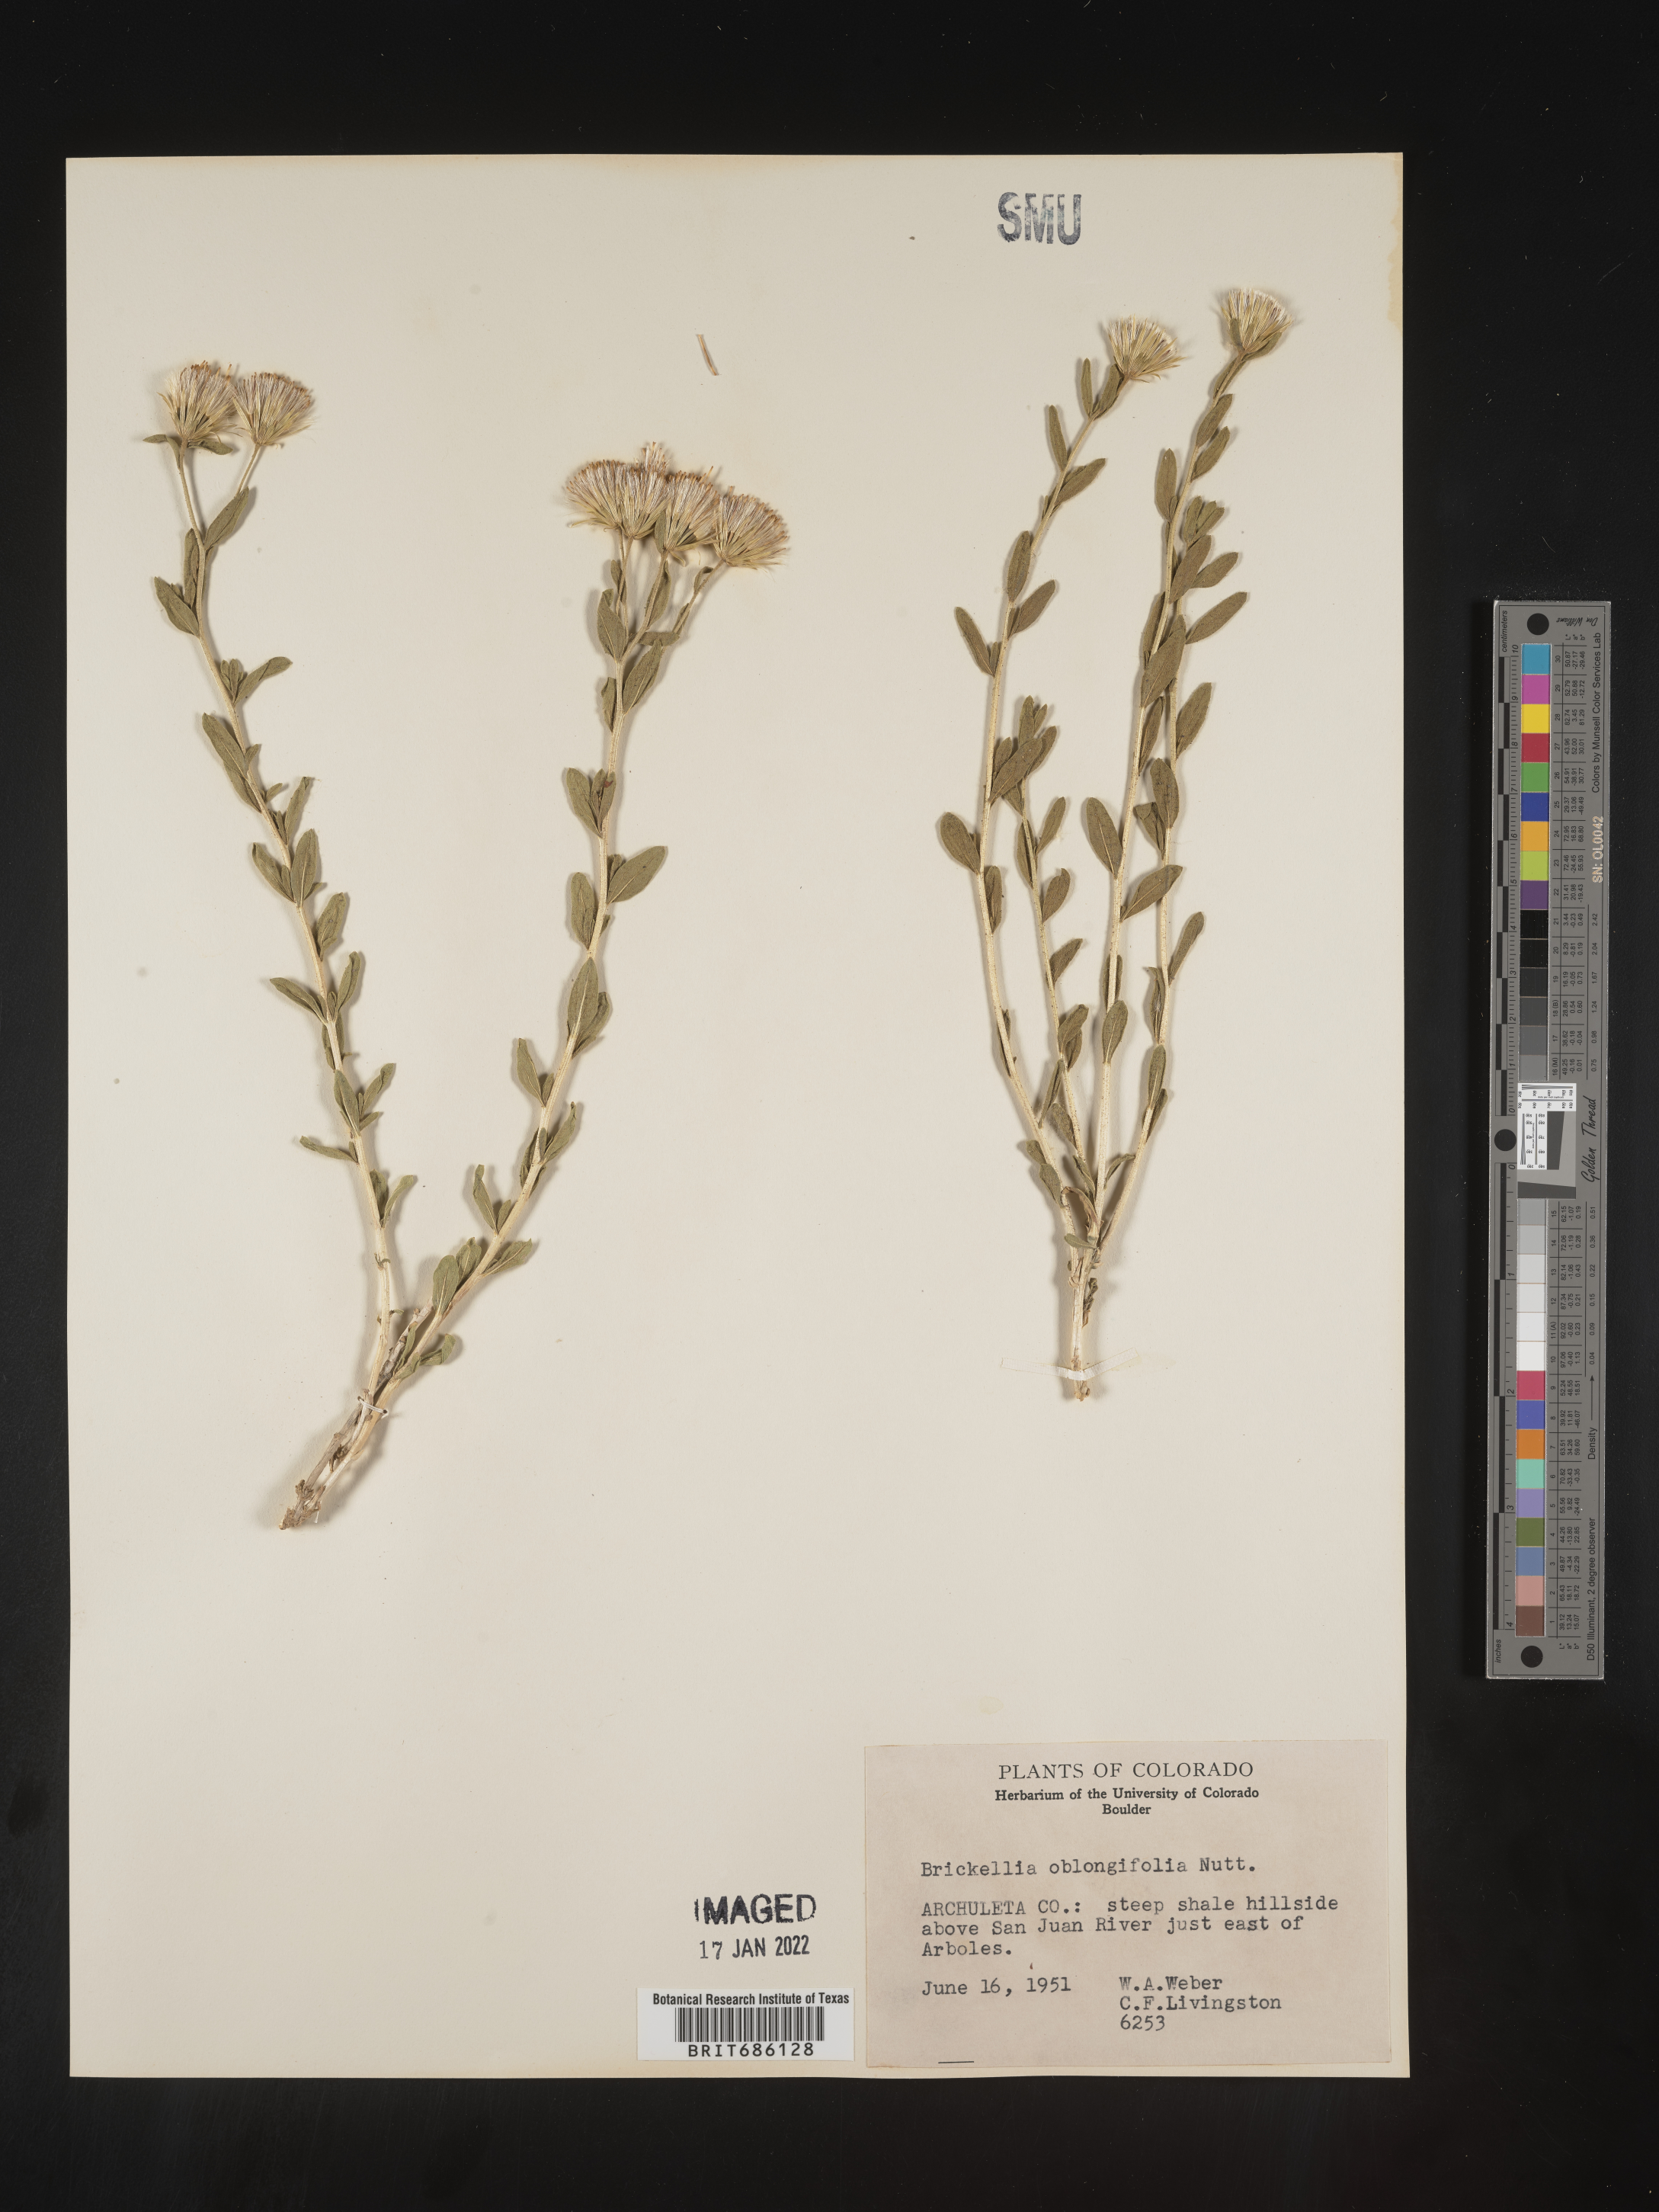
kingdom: Plantae
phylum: Tracheophyta
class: Magnoliopsida
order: Asterales
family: Asteraceae
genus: Brickellia
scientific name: Brickellia oblongifolia
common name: Mojave brickellbush
